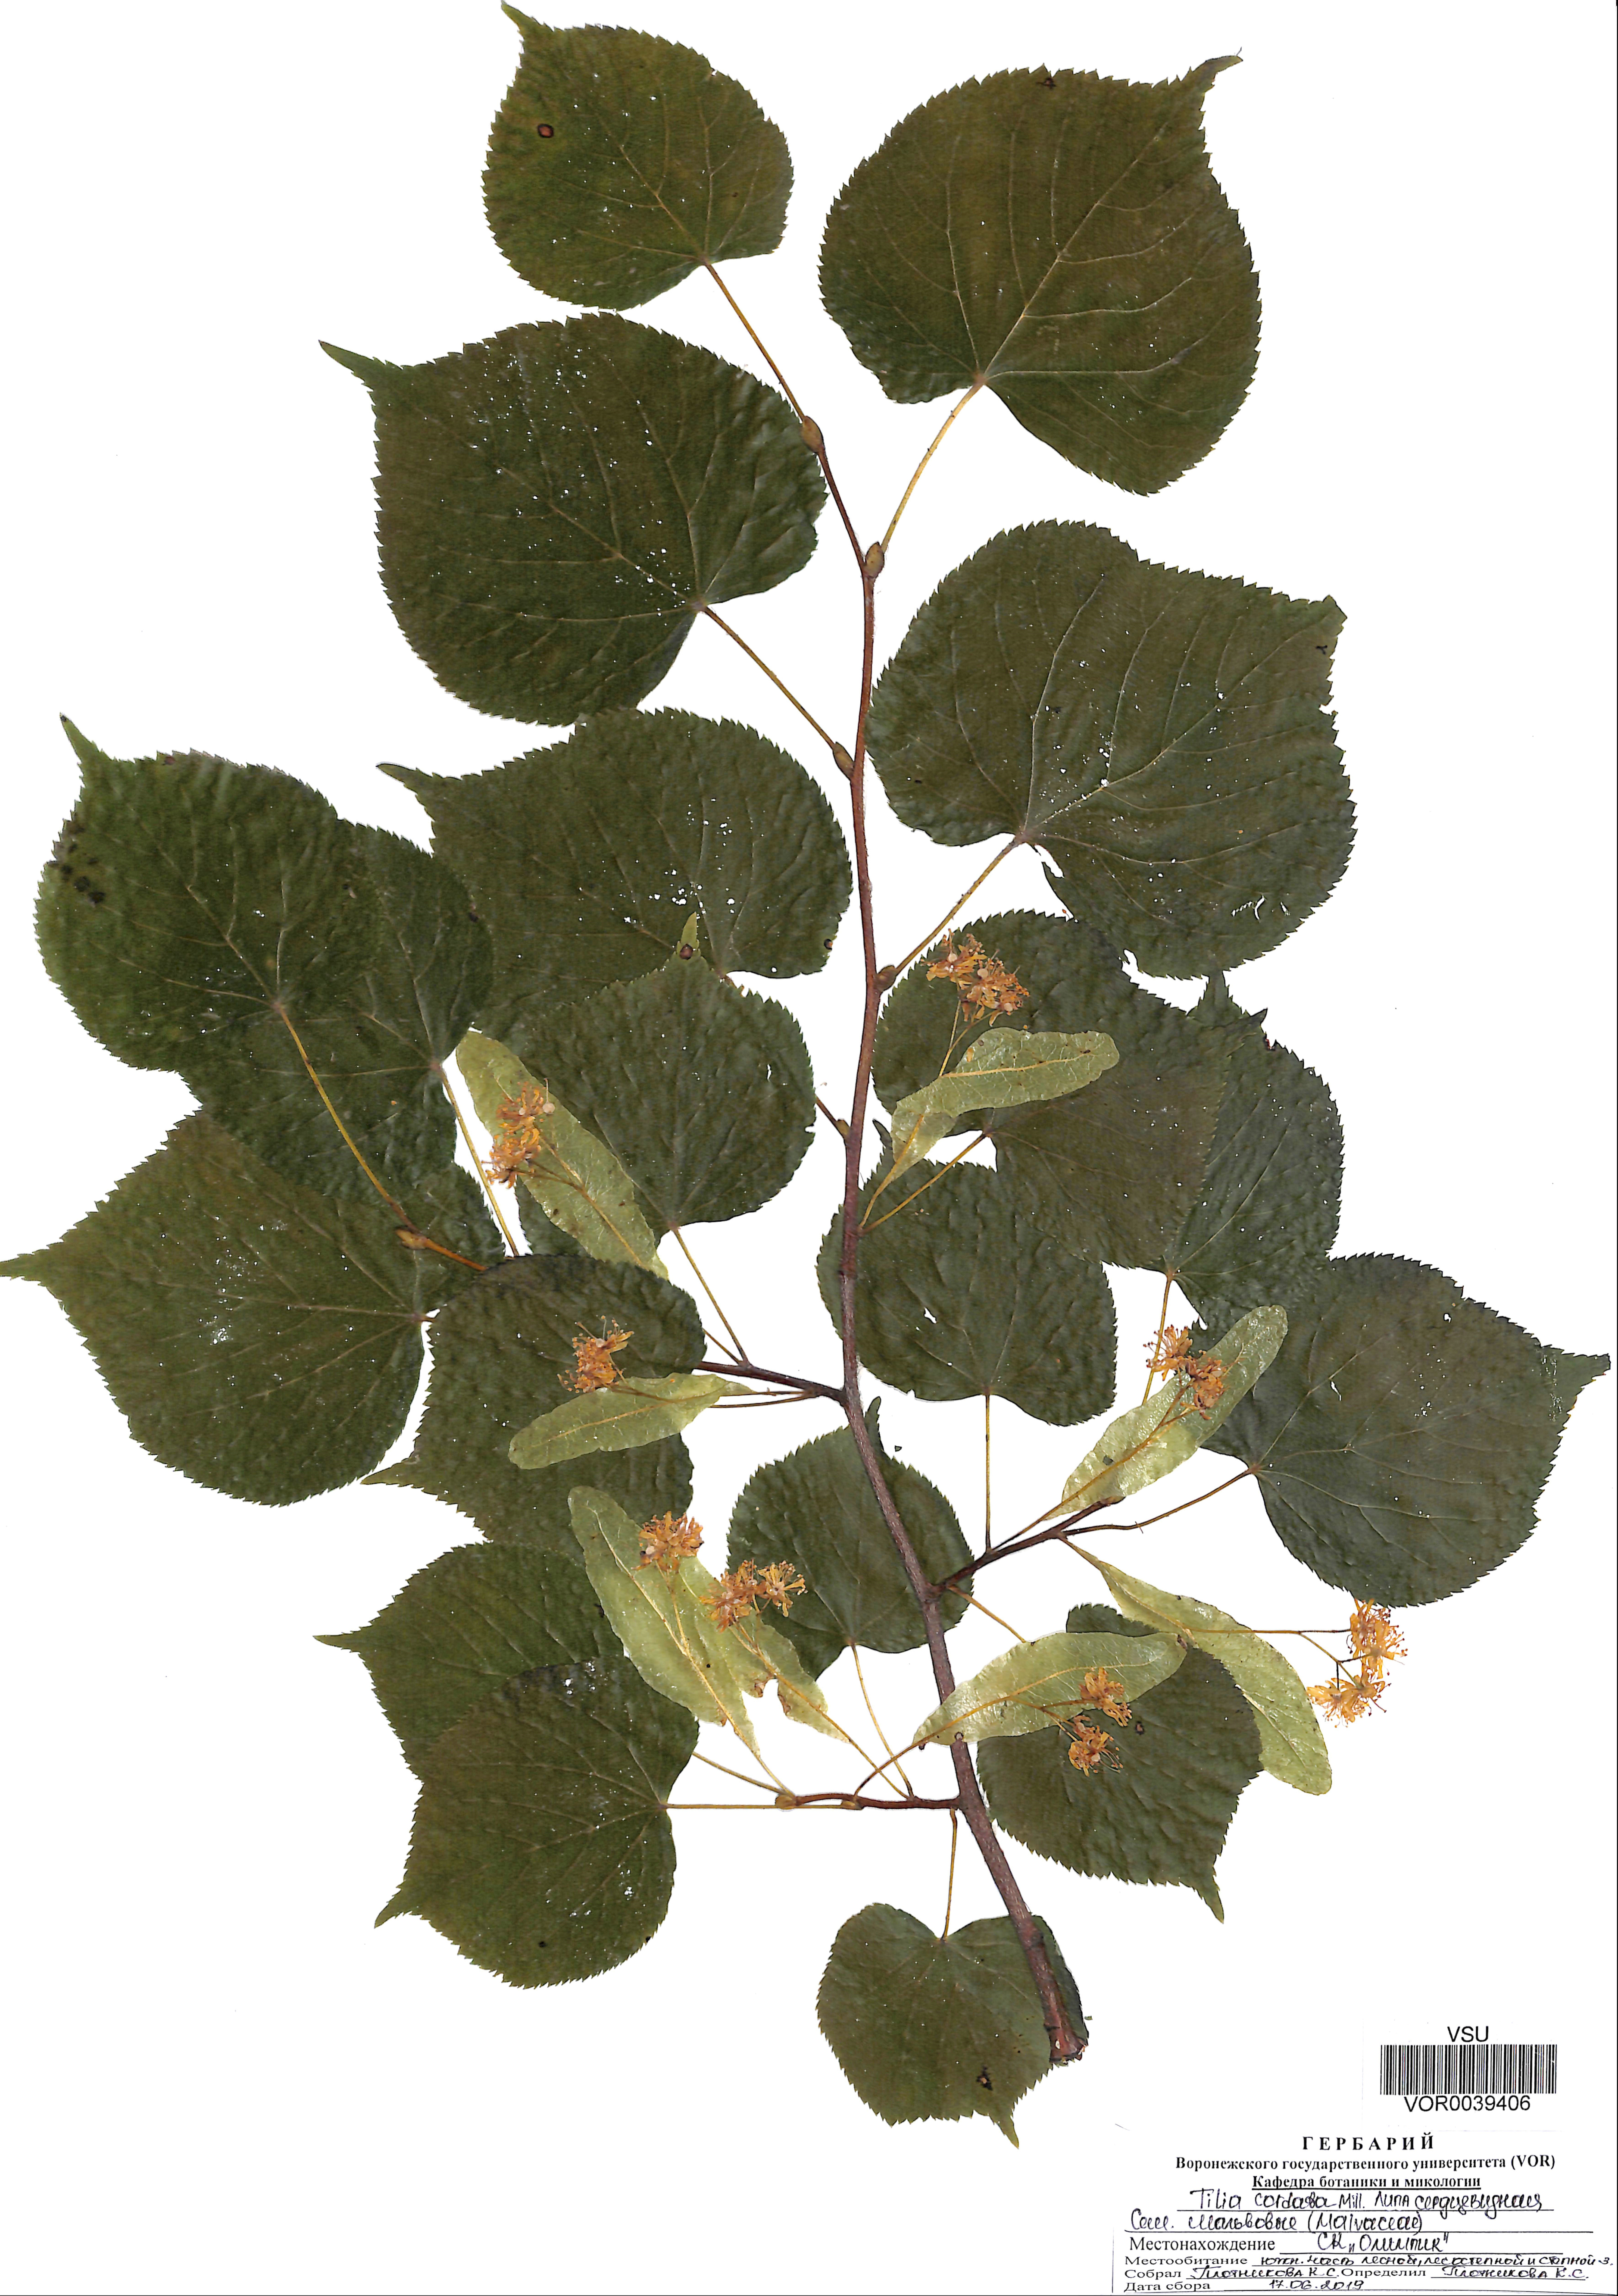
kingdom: Plantae
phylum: Tracheophyta
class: Magnoliopsida
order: Malvales
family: Malvaceae
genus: Tilia
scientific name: Tilia cordata
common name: Small-leaved lime
